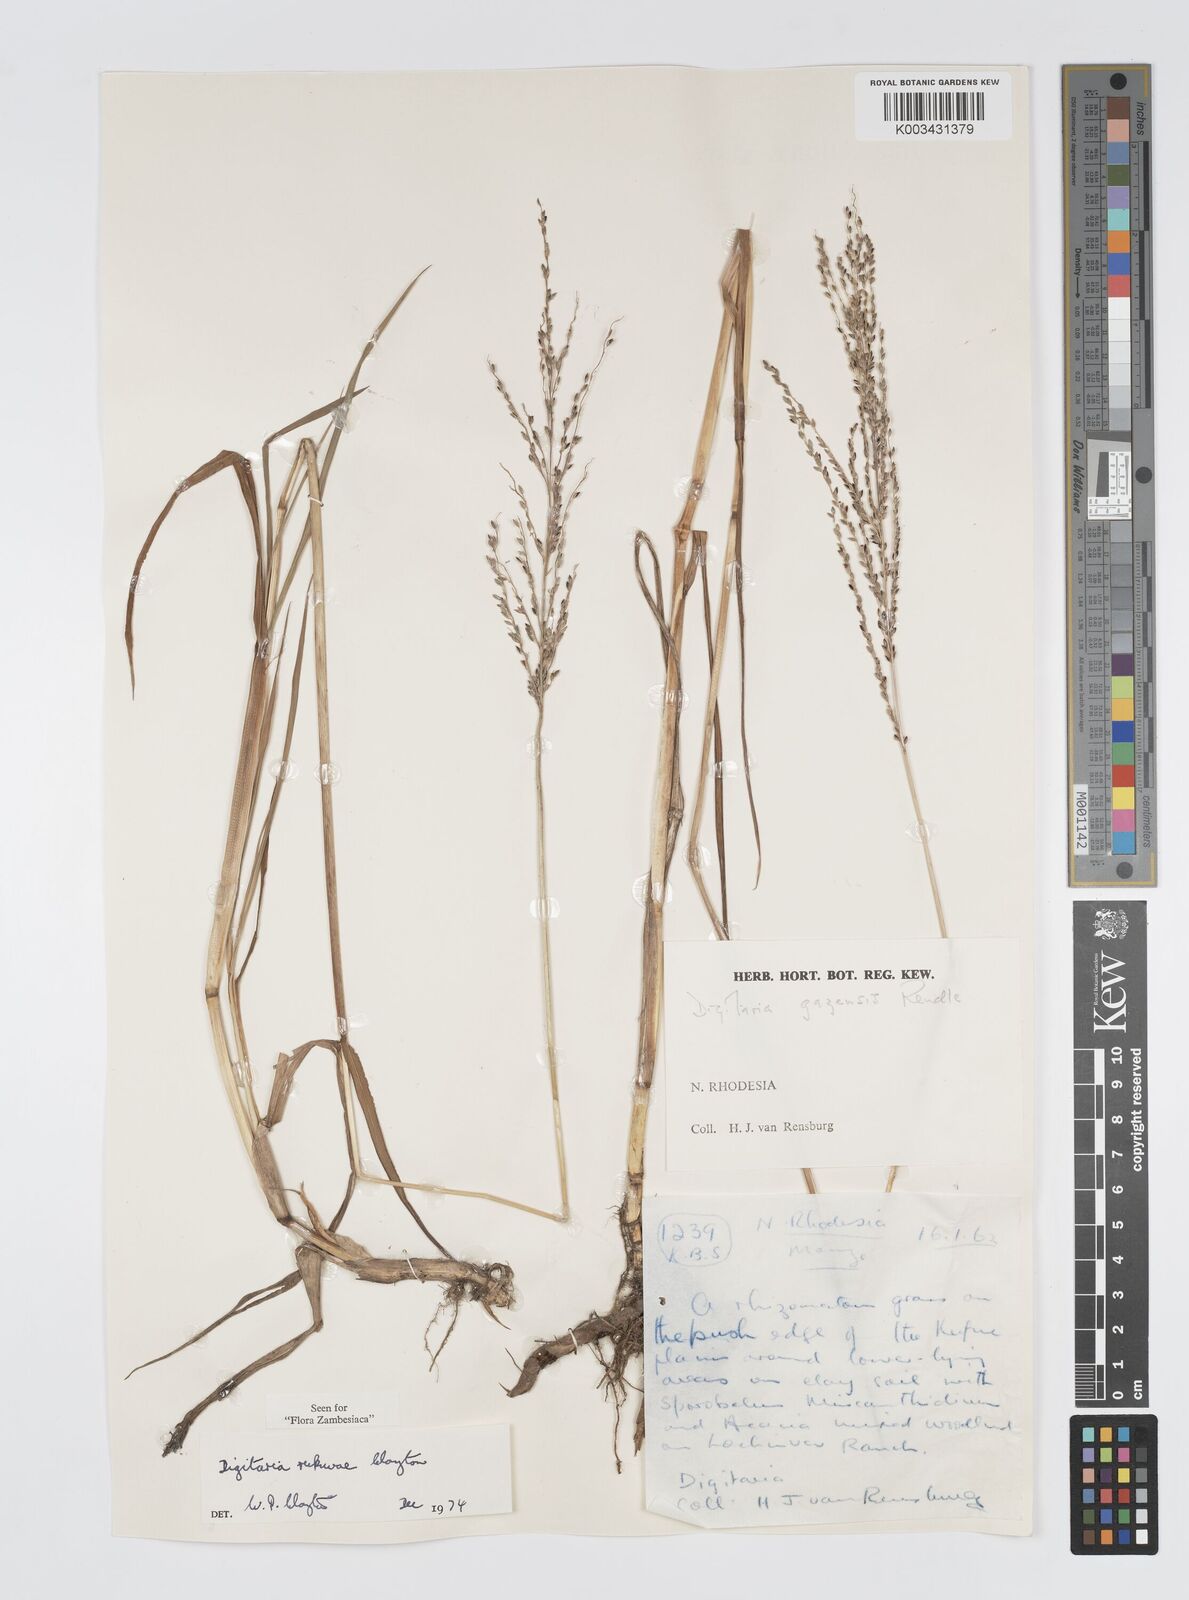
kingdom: Plantae
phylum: Tracheophyta
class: Liliopsida
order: Poales
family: Poaceae
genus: Digitaria
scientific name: Digitaria rukwae
